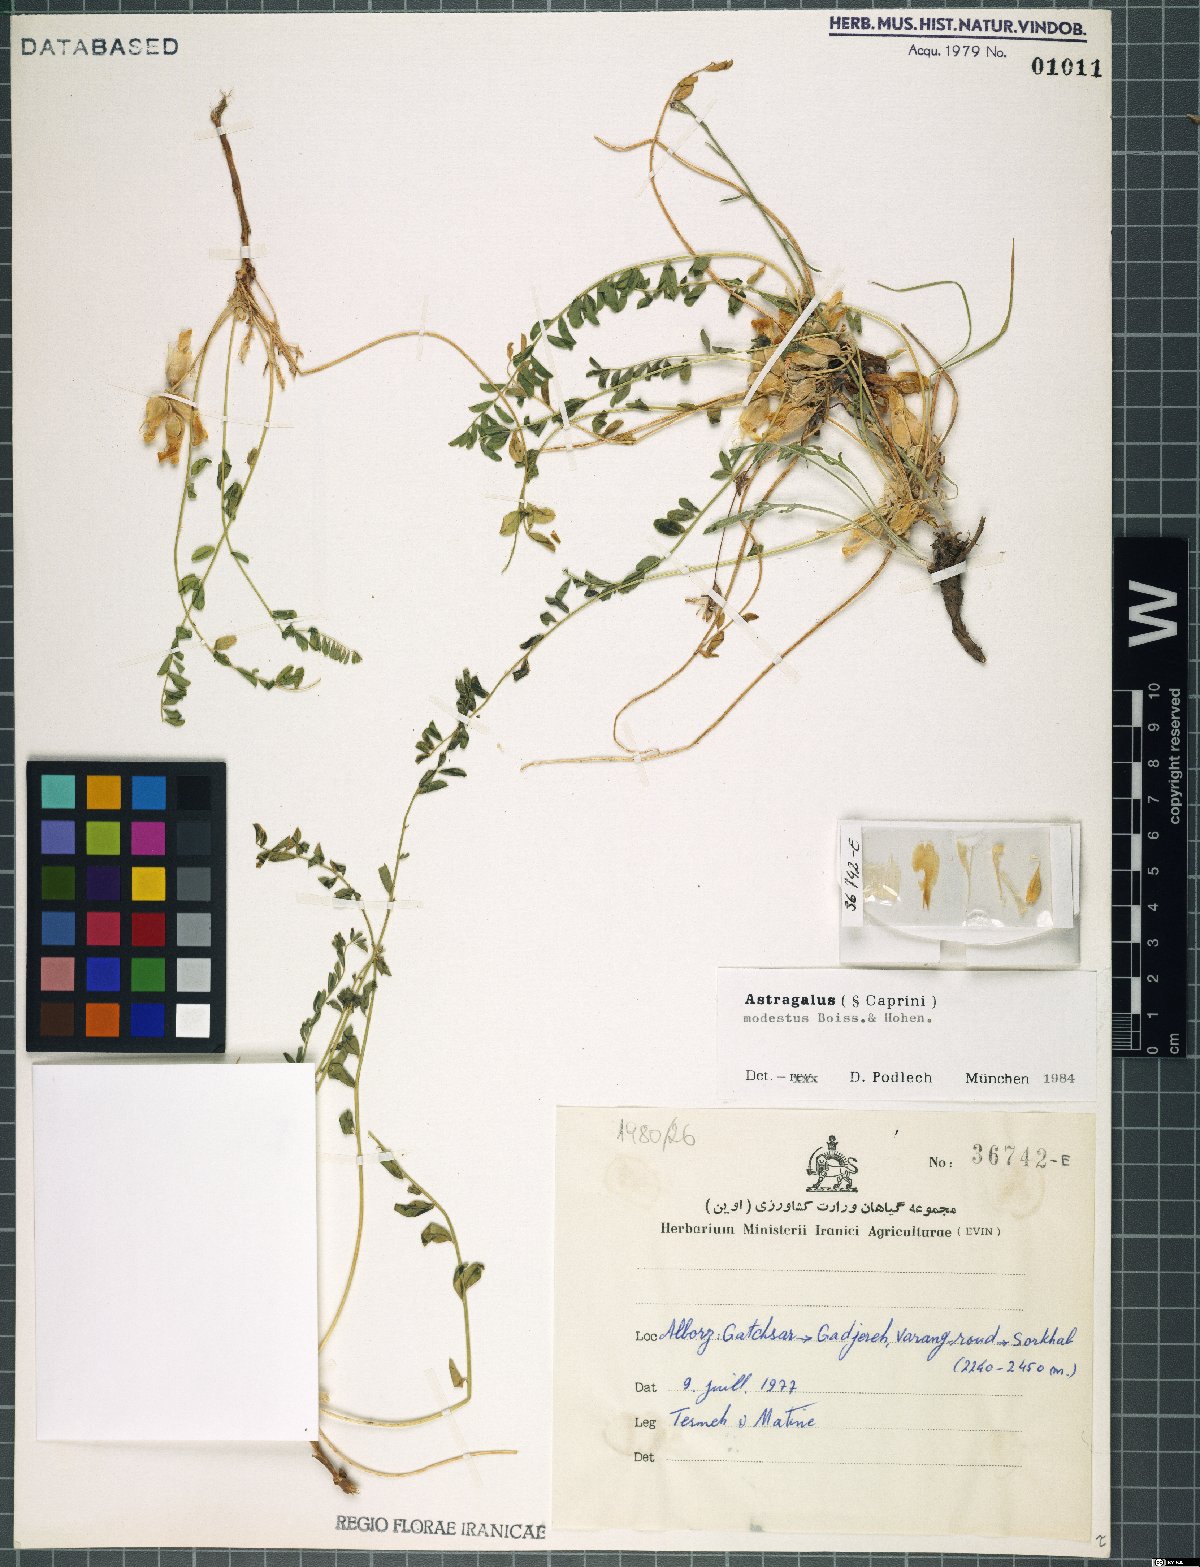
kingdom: Plantae
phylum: Tracheophyta
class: Magnoliopsida
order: Fabales
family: Fabaceae
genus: Astragalus
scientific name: Astragalus modestus
